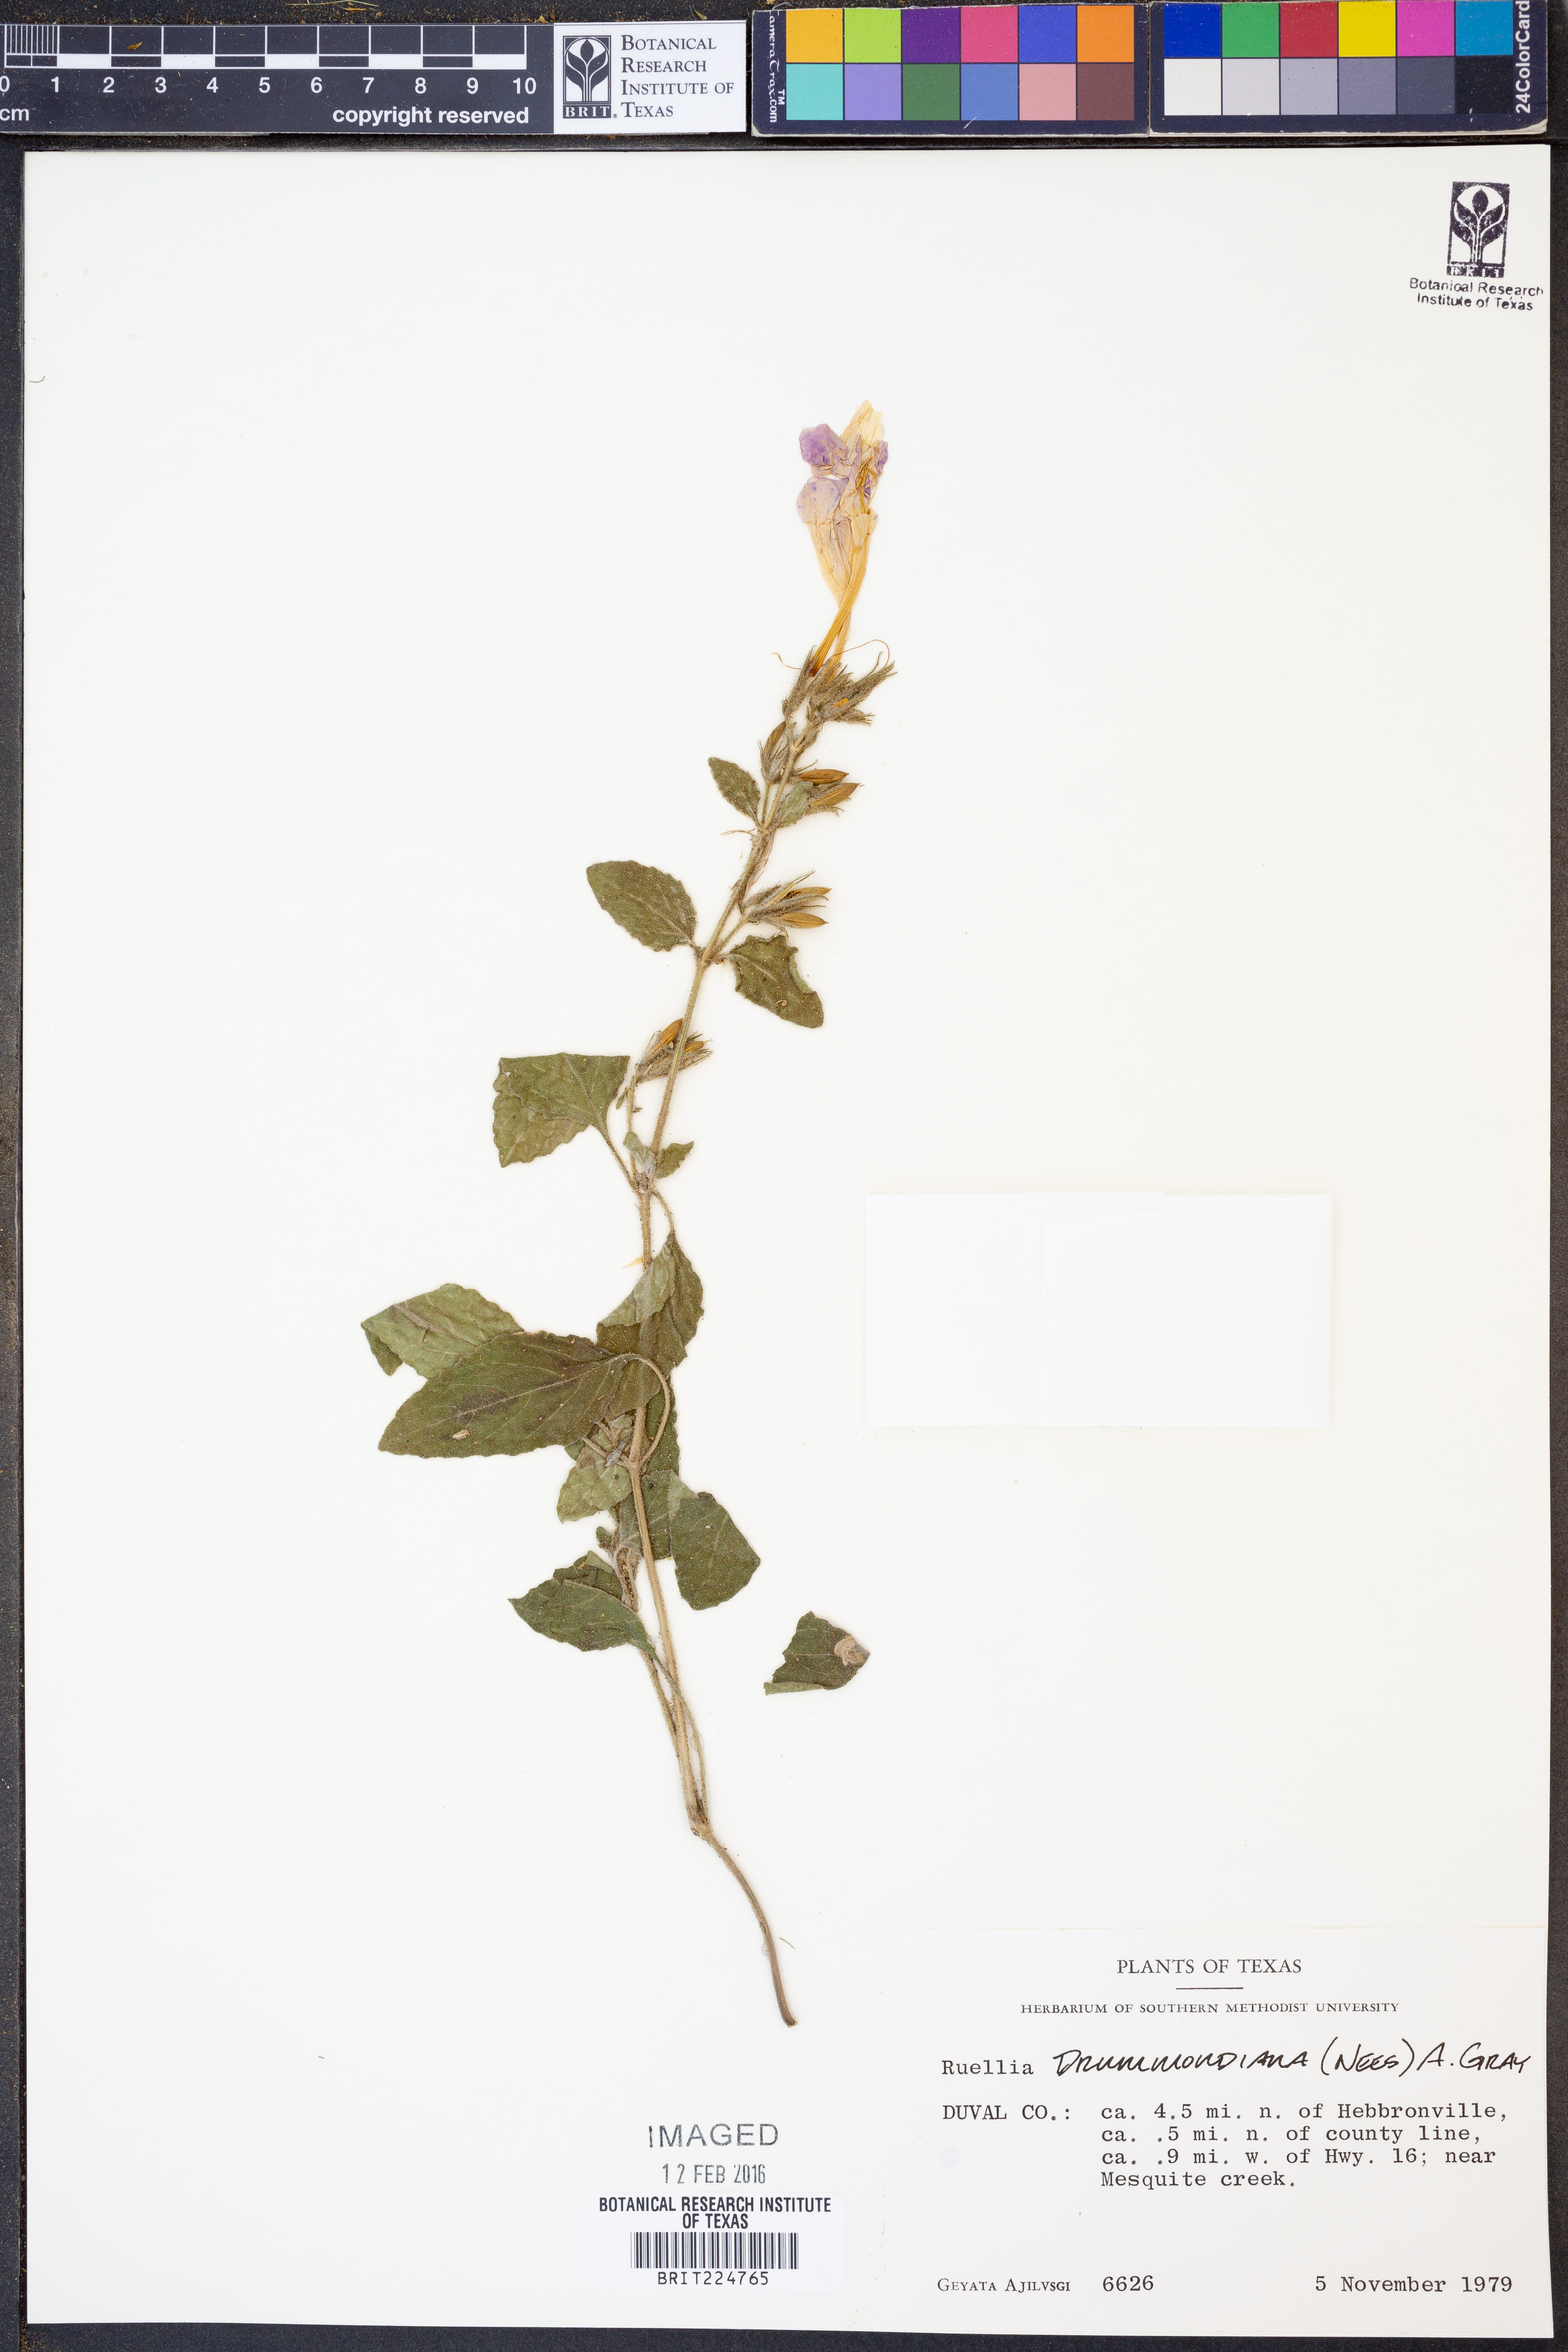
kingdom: Plantae
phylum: Tracheophyta
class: Magnoliopsida
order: Lamiales
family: Acanthaceae
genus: Ruellia
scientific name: Ruellia drummondiana
